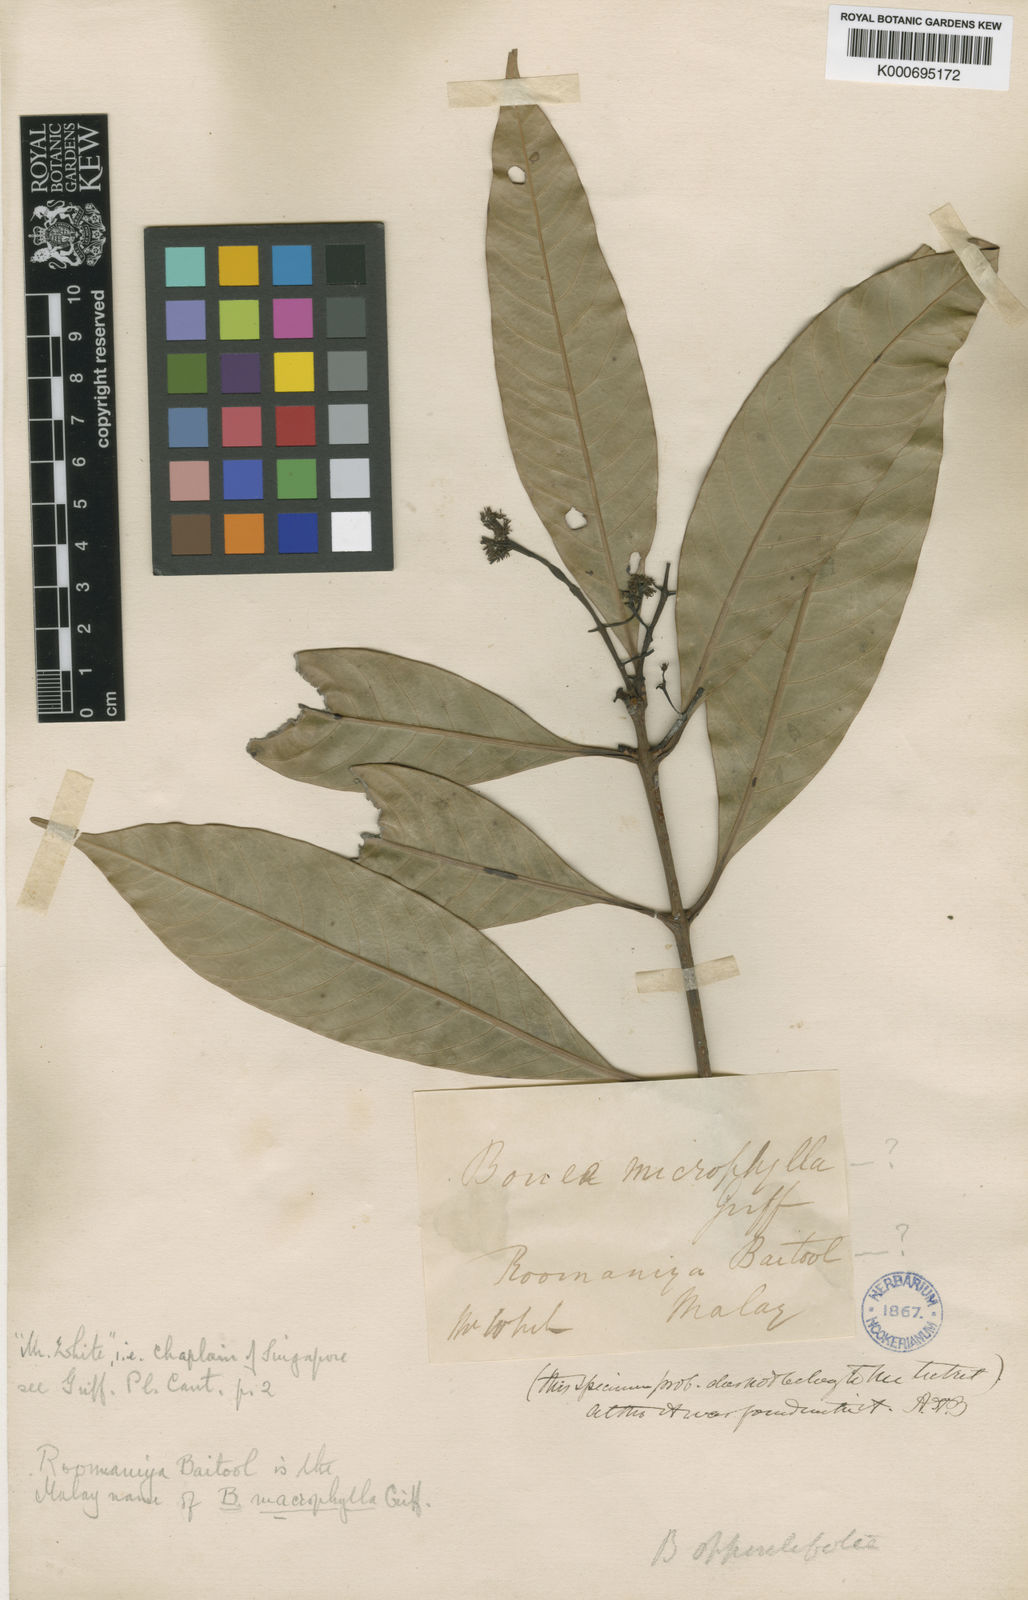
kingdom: Plantae
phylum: Tracheophyta
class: Magnoliopsida
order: Sapindales
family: Anacardiaceae
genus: Bouea
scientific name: Bouea oppositifolia
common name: Narrow-leaved kundang
